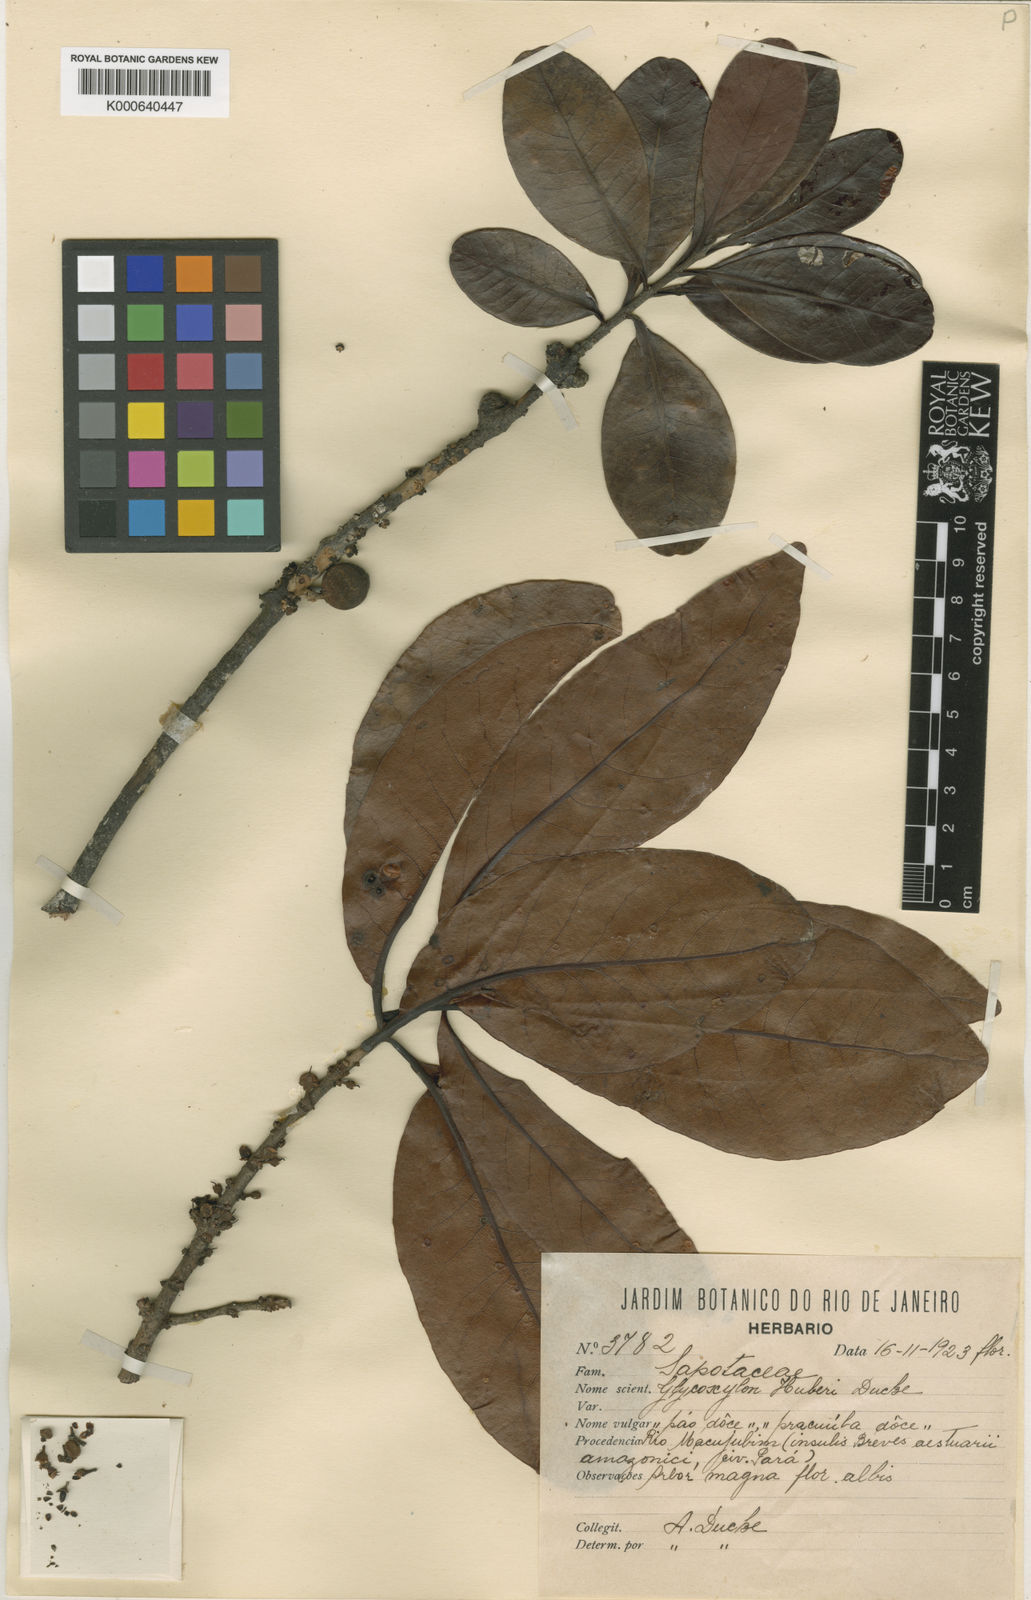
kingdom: Plantae
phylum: Tracheophyta
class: Magnoliopsida
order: Ericales
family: Sapotaceae
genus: Pradosia
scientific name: Pradosia huberi
